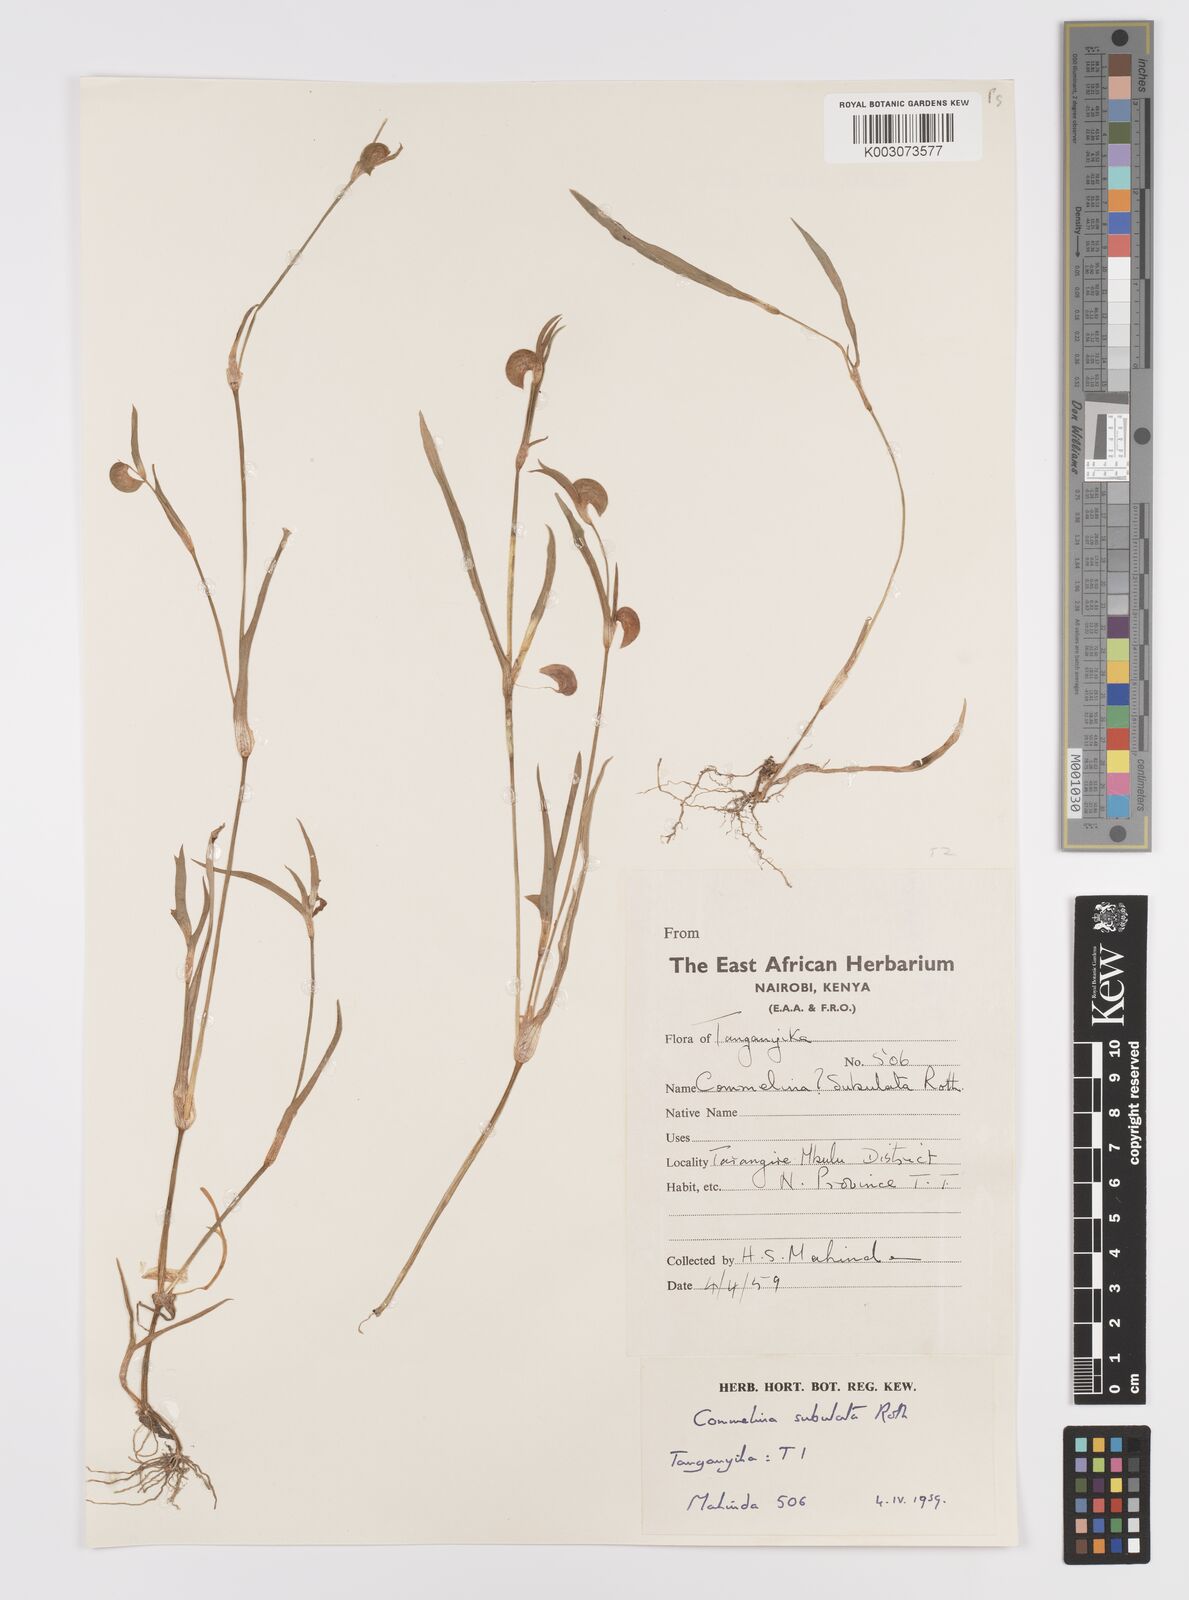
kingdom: Plantae
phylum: Tracheophyta
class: Liliopsida
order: Commelinales
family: Commelinaceae
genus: Commelina
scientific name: Commelina subulata
